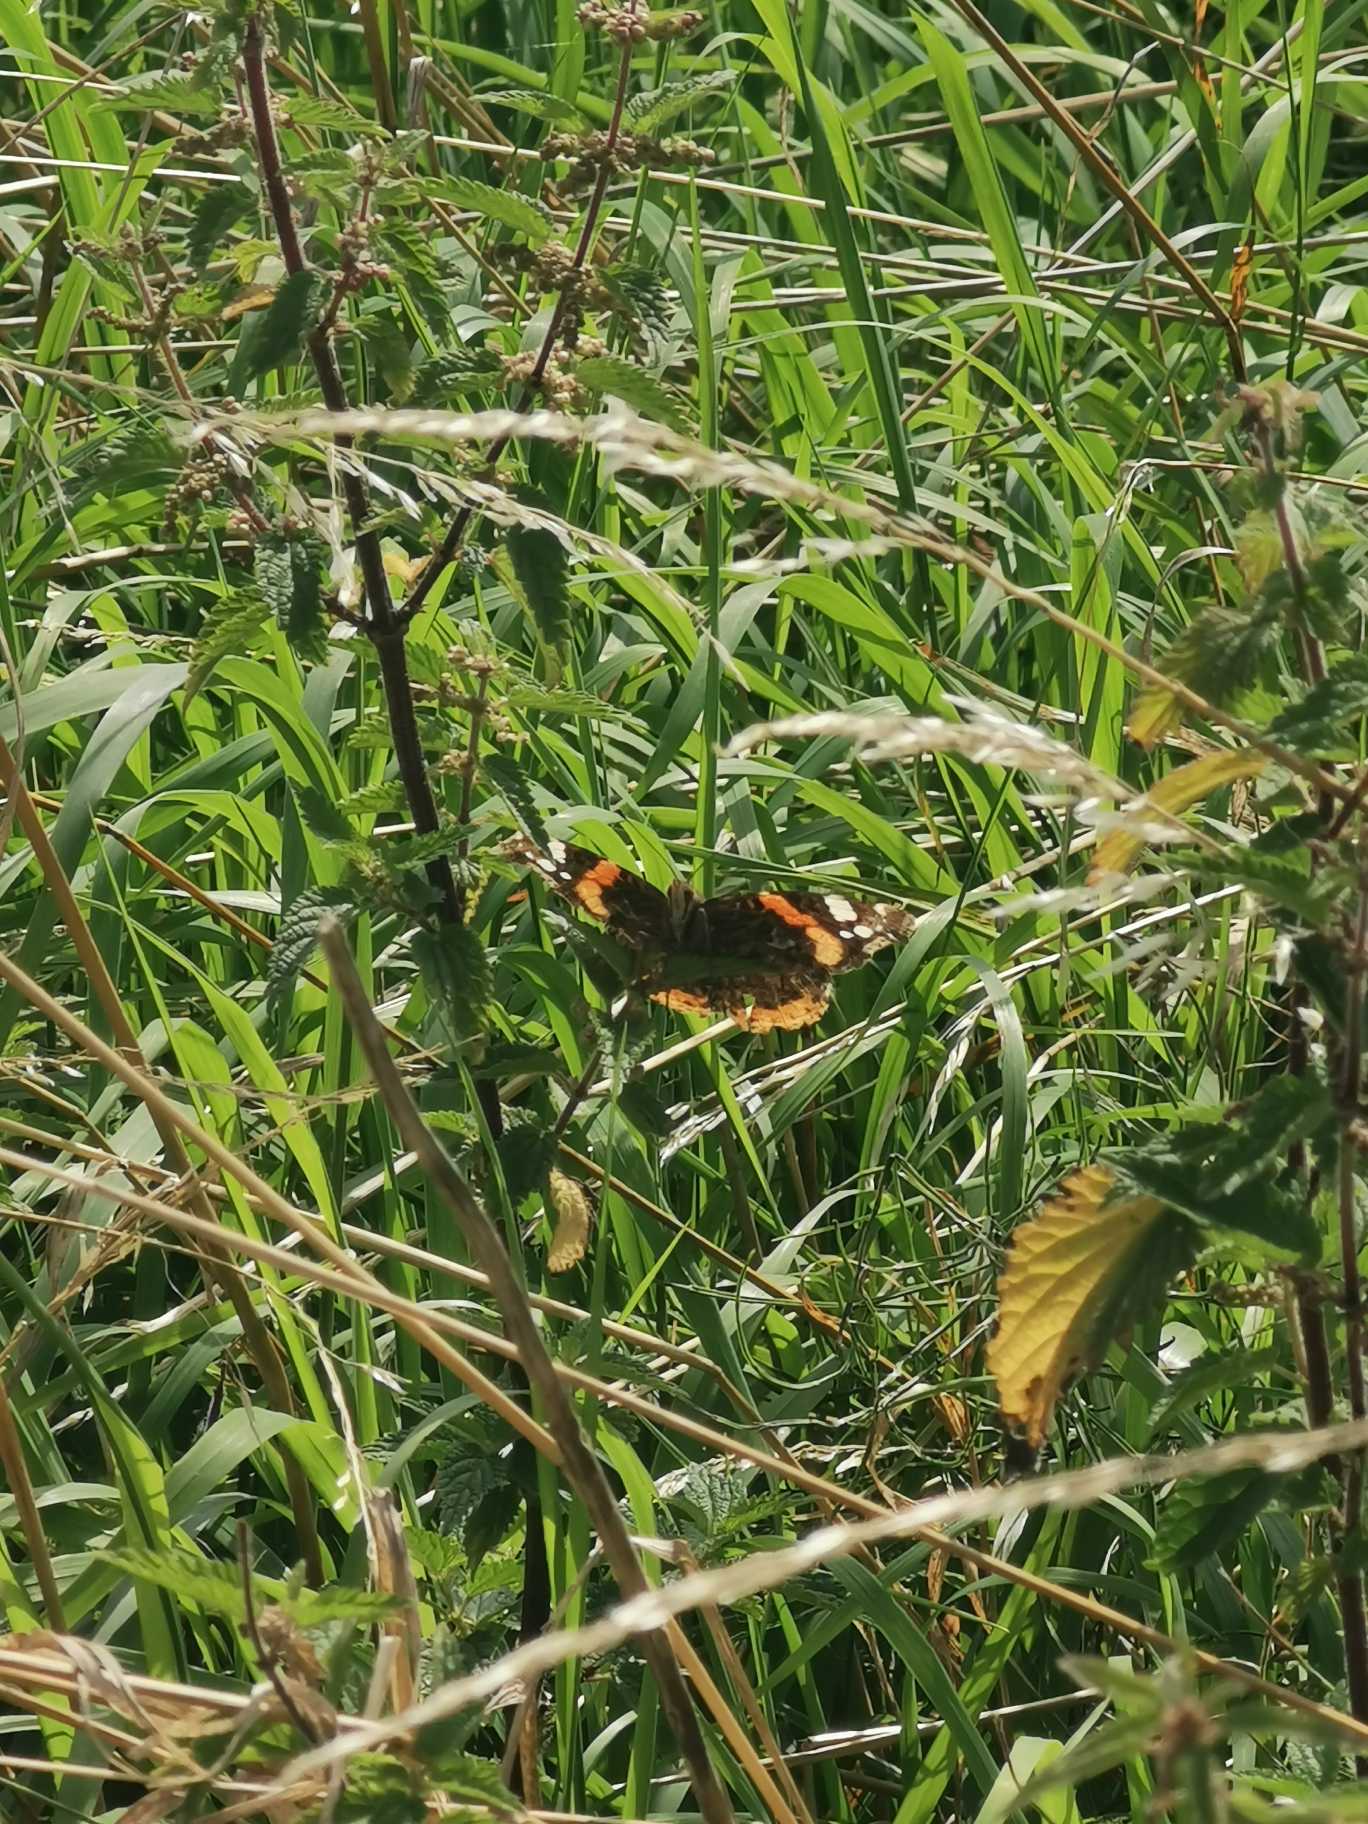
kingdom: Animalia
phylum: Arthropoda
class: Insecta
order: Lepidoptera
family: Nymphalidae
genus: Vanessa
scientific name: Vanessa atalanta
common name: Admiral
